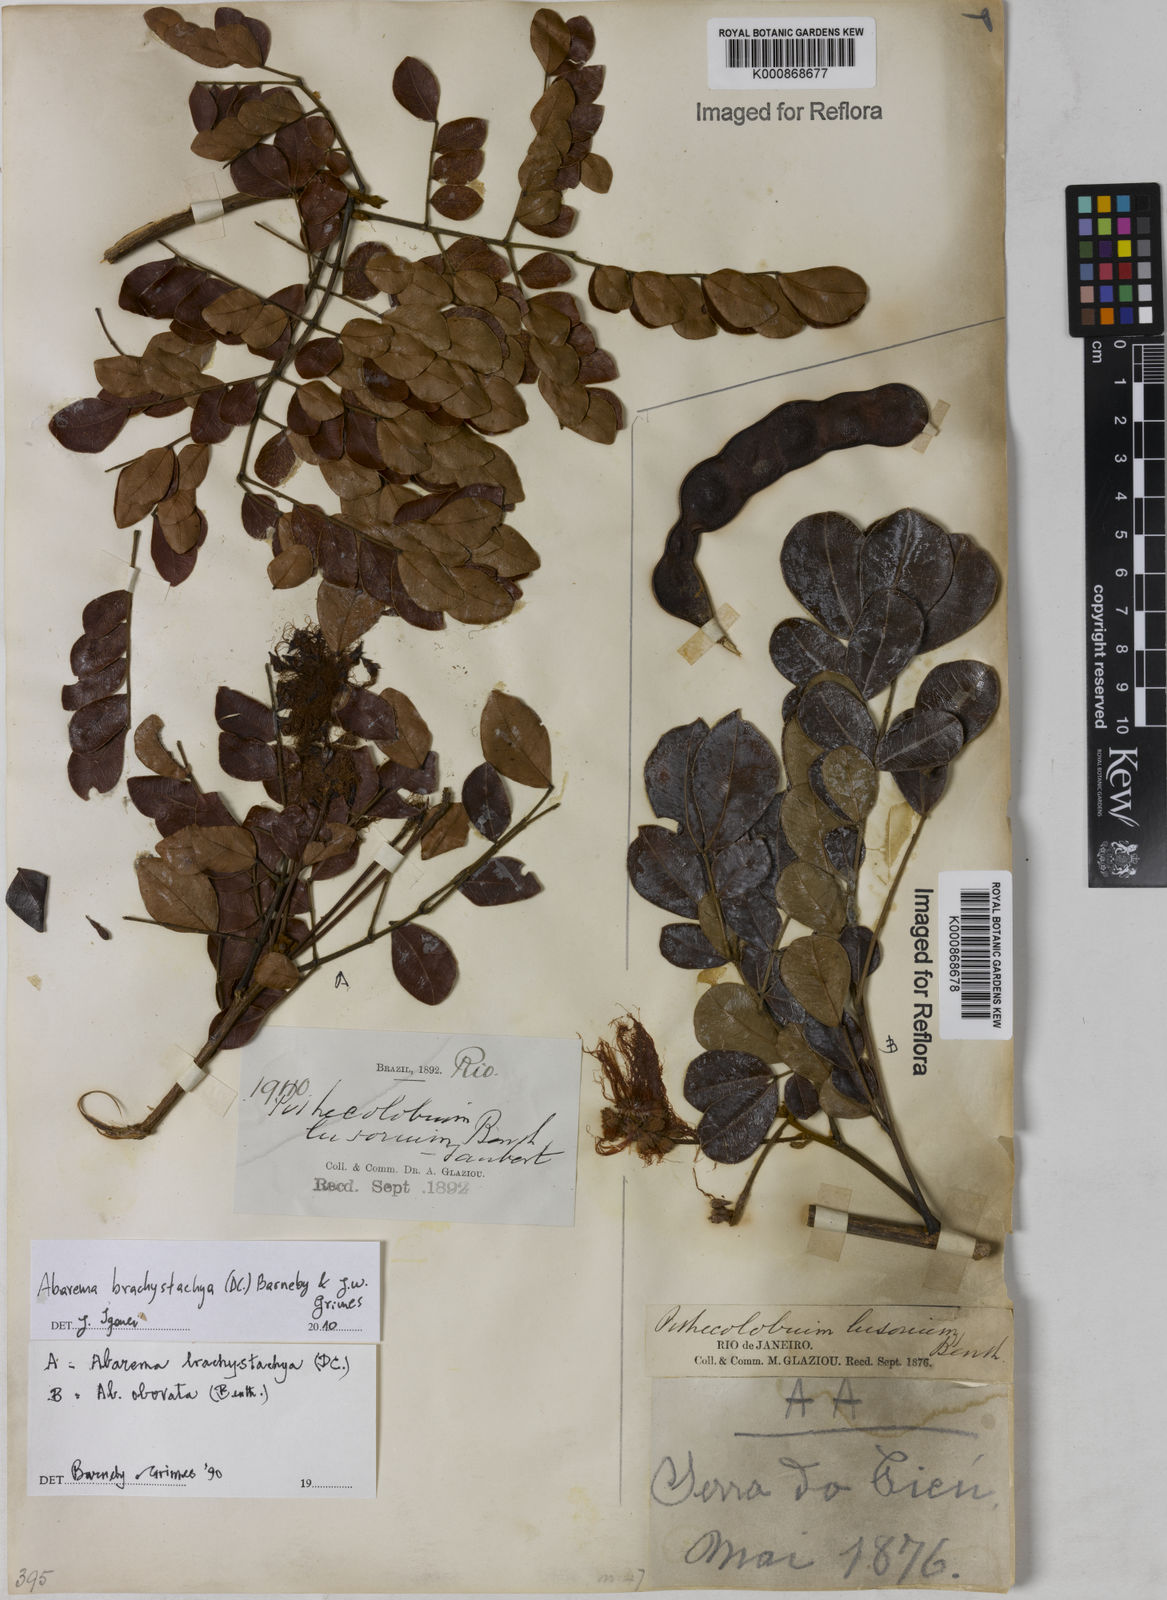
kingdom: Plantae
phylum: Tracheophyta
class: Magnoliopsida
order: Fabales
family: Fabaceae
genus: Abarema
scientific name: Abarema
